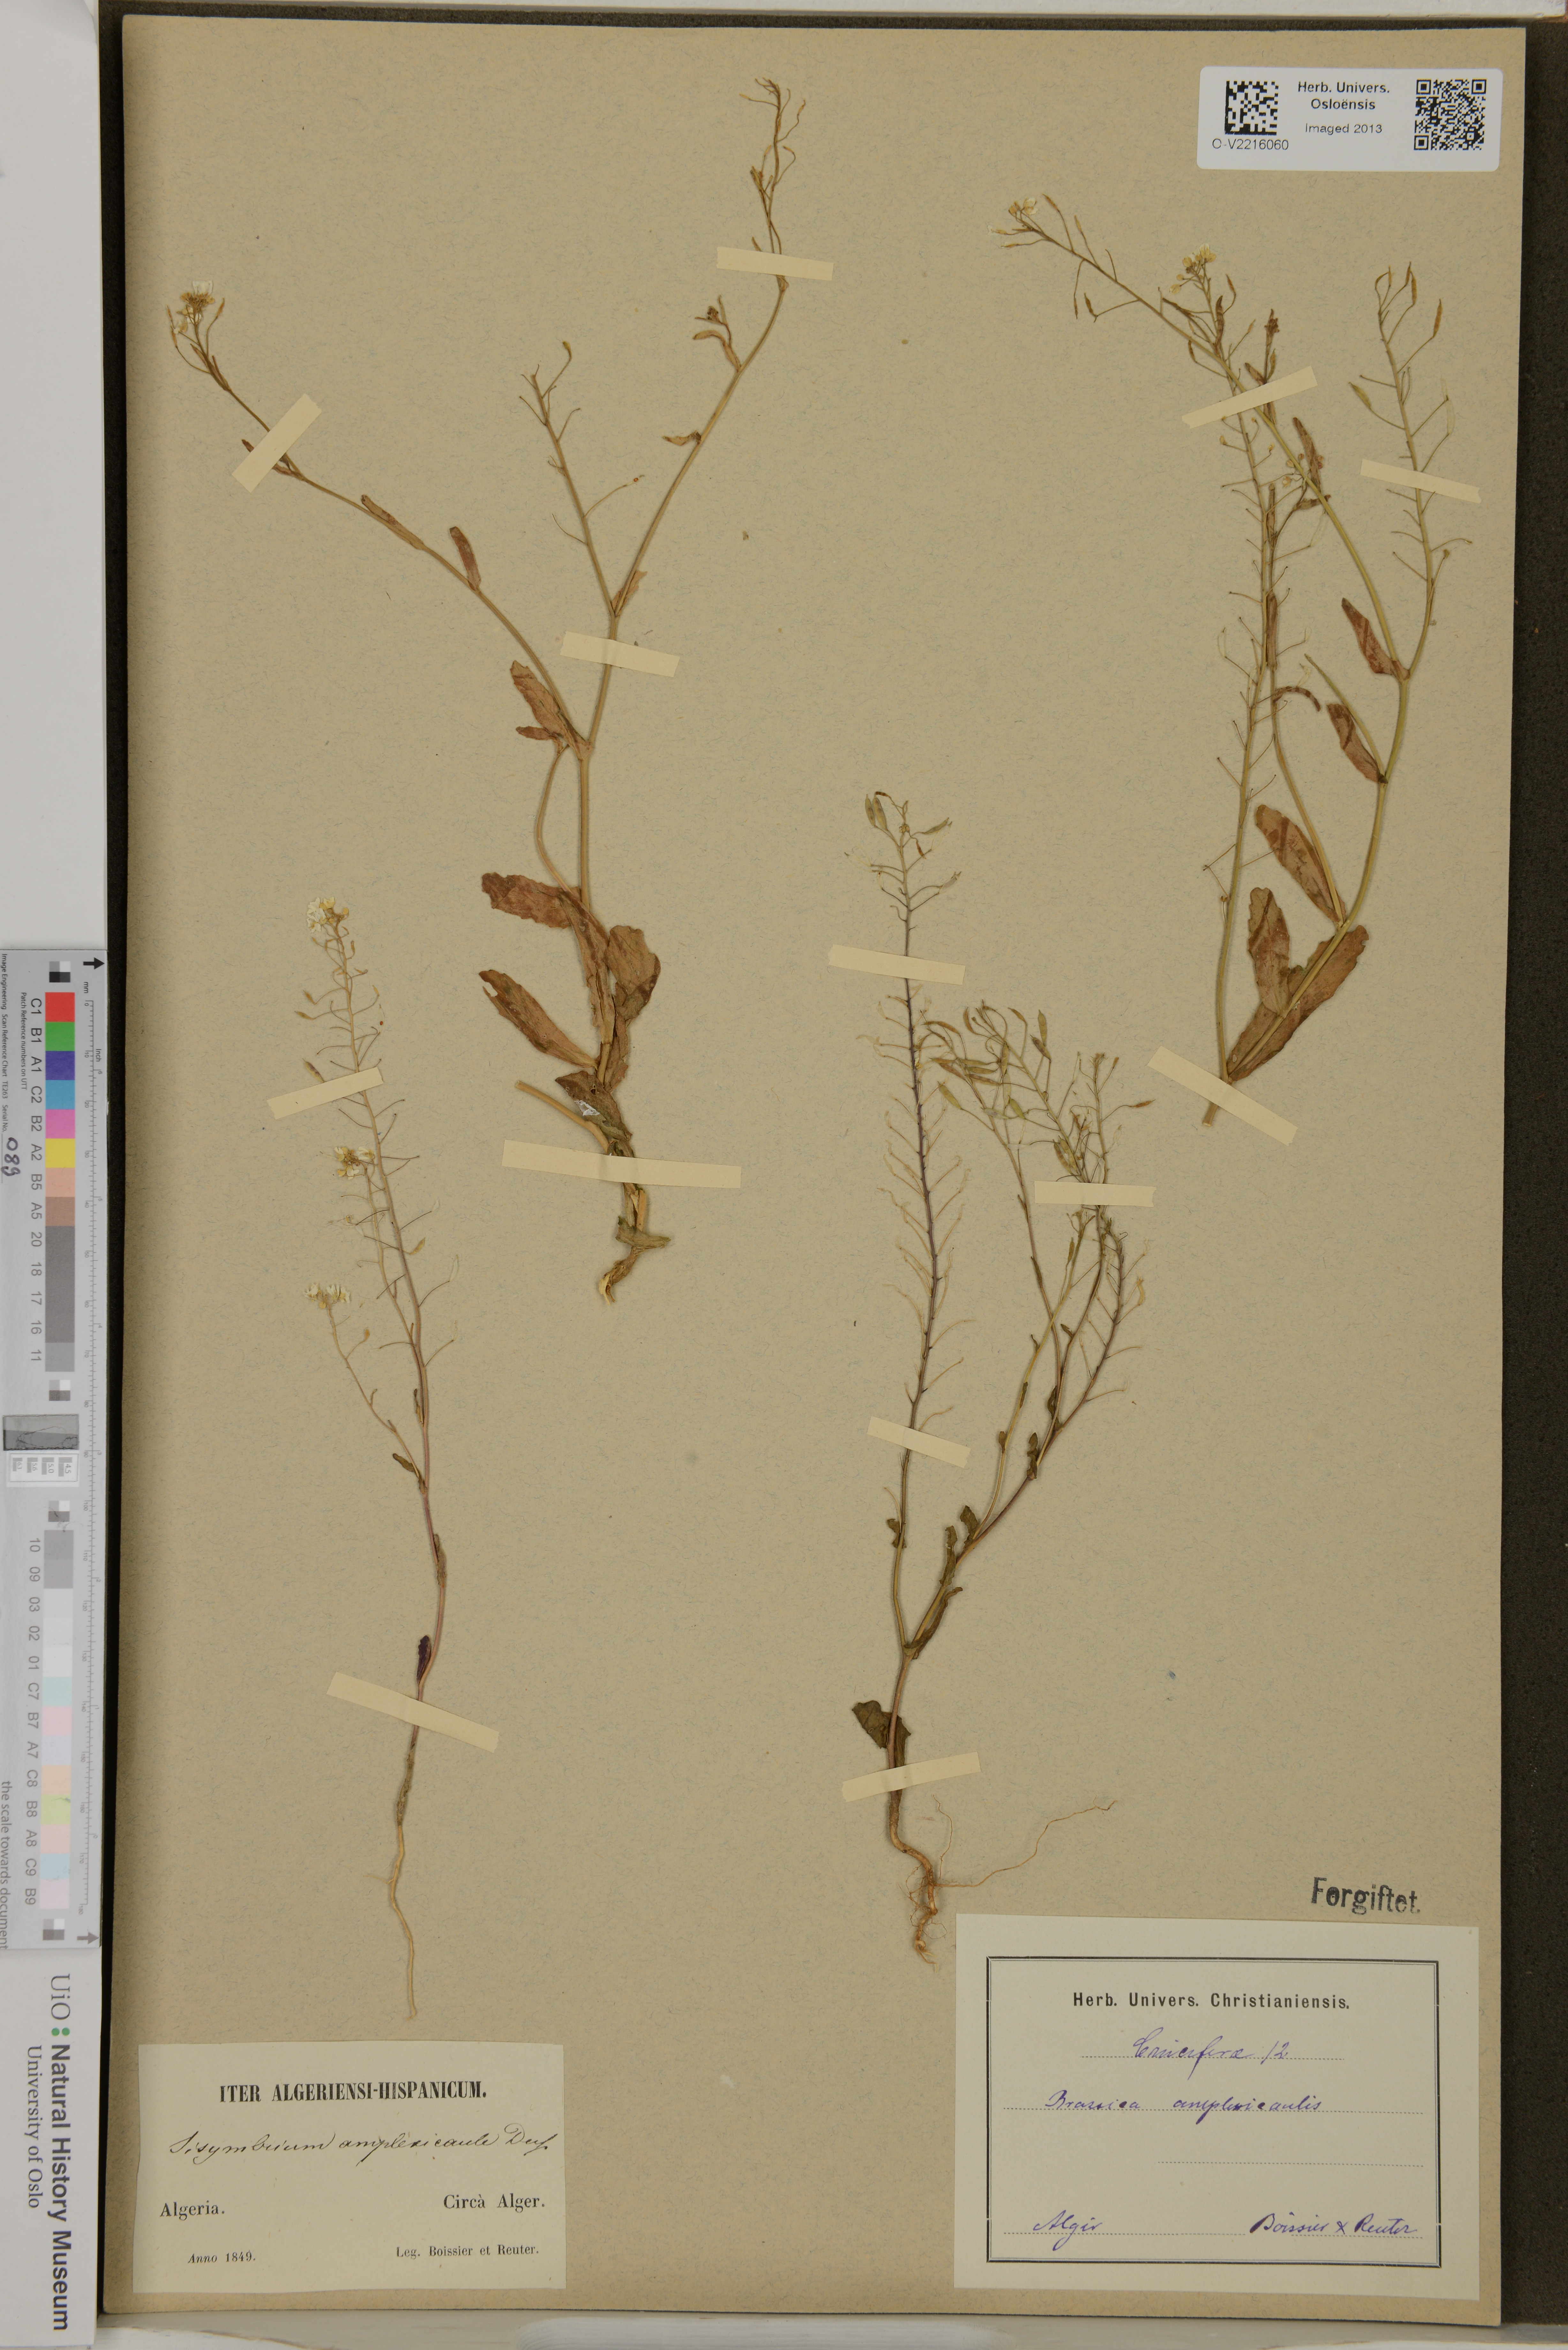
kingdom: Plantae
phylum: Tracheophyta
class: Magnoliopsida
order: Brassicales
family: Brassicaceae
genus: Brassica
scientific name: Brassica fruticulosa
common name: Twiggy turnip
